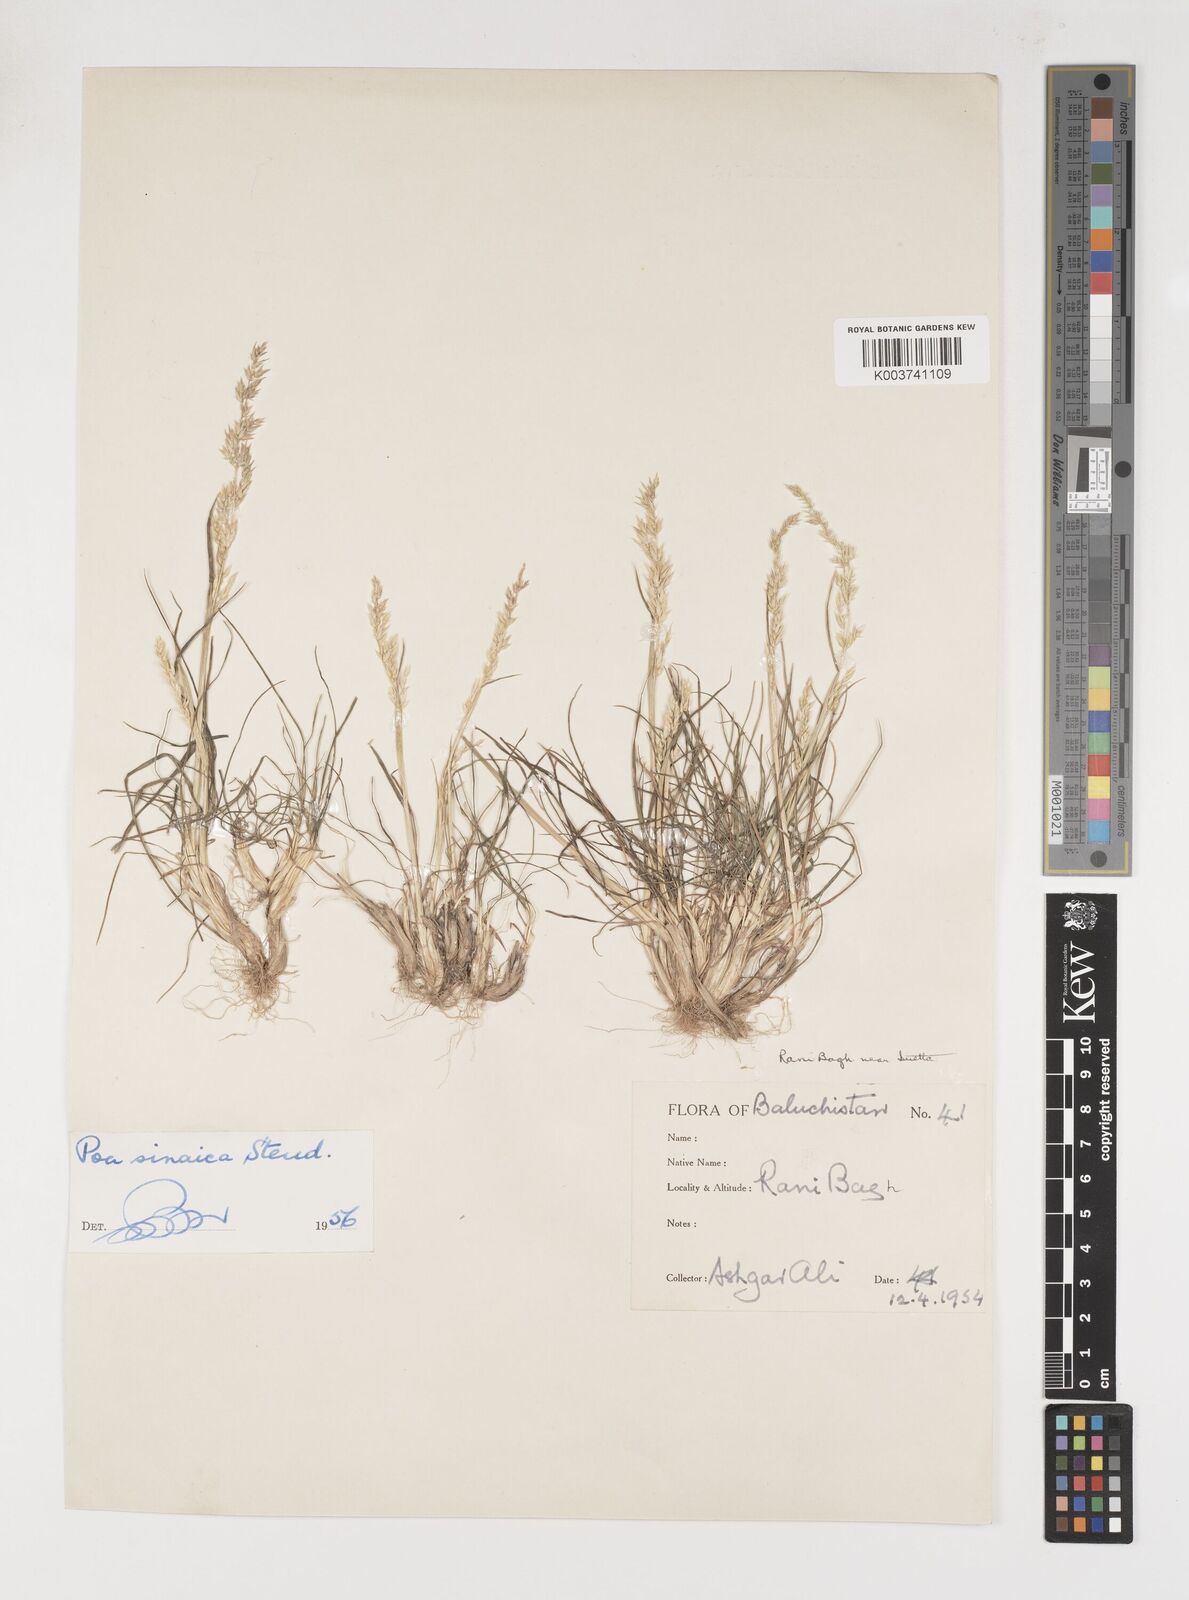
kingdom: Plantae
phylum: Tracheophyta
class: Liliopsida
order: Poales
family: Poaceae
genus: Poa
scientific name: Poa sinaica
